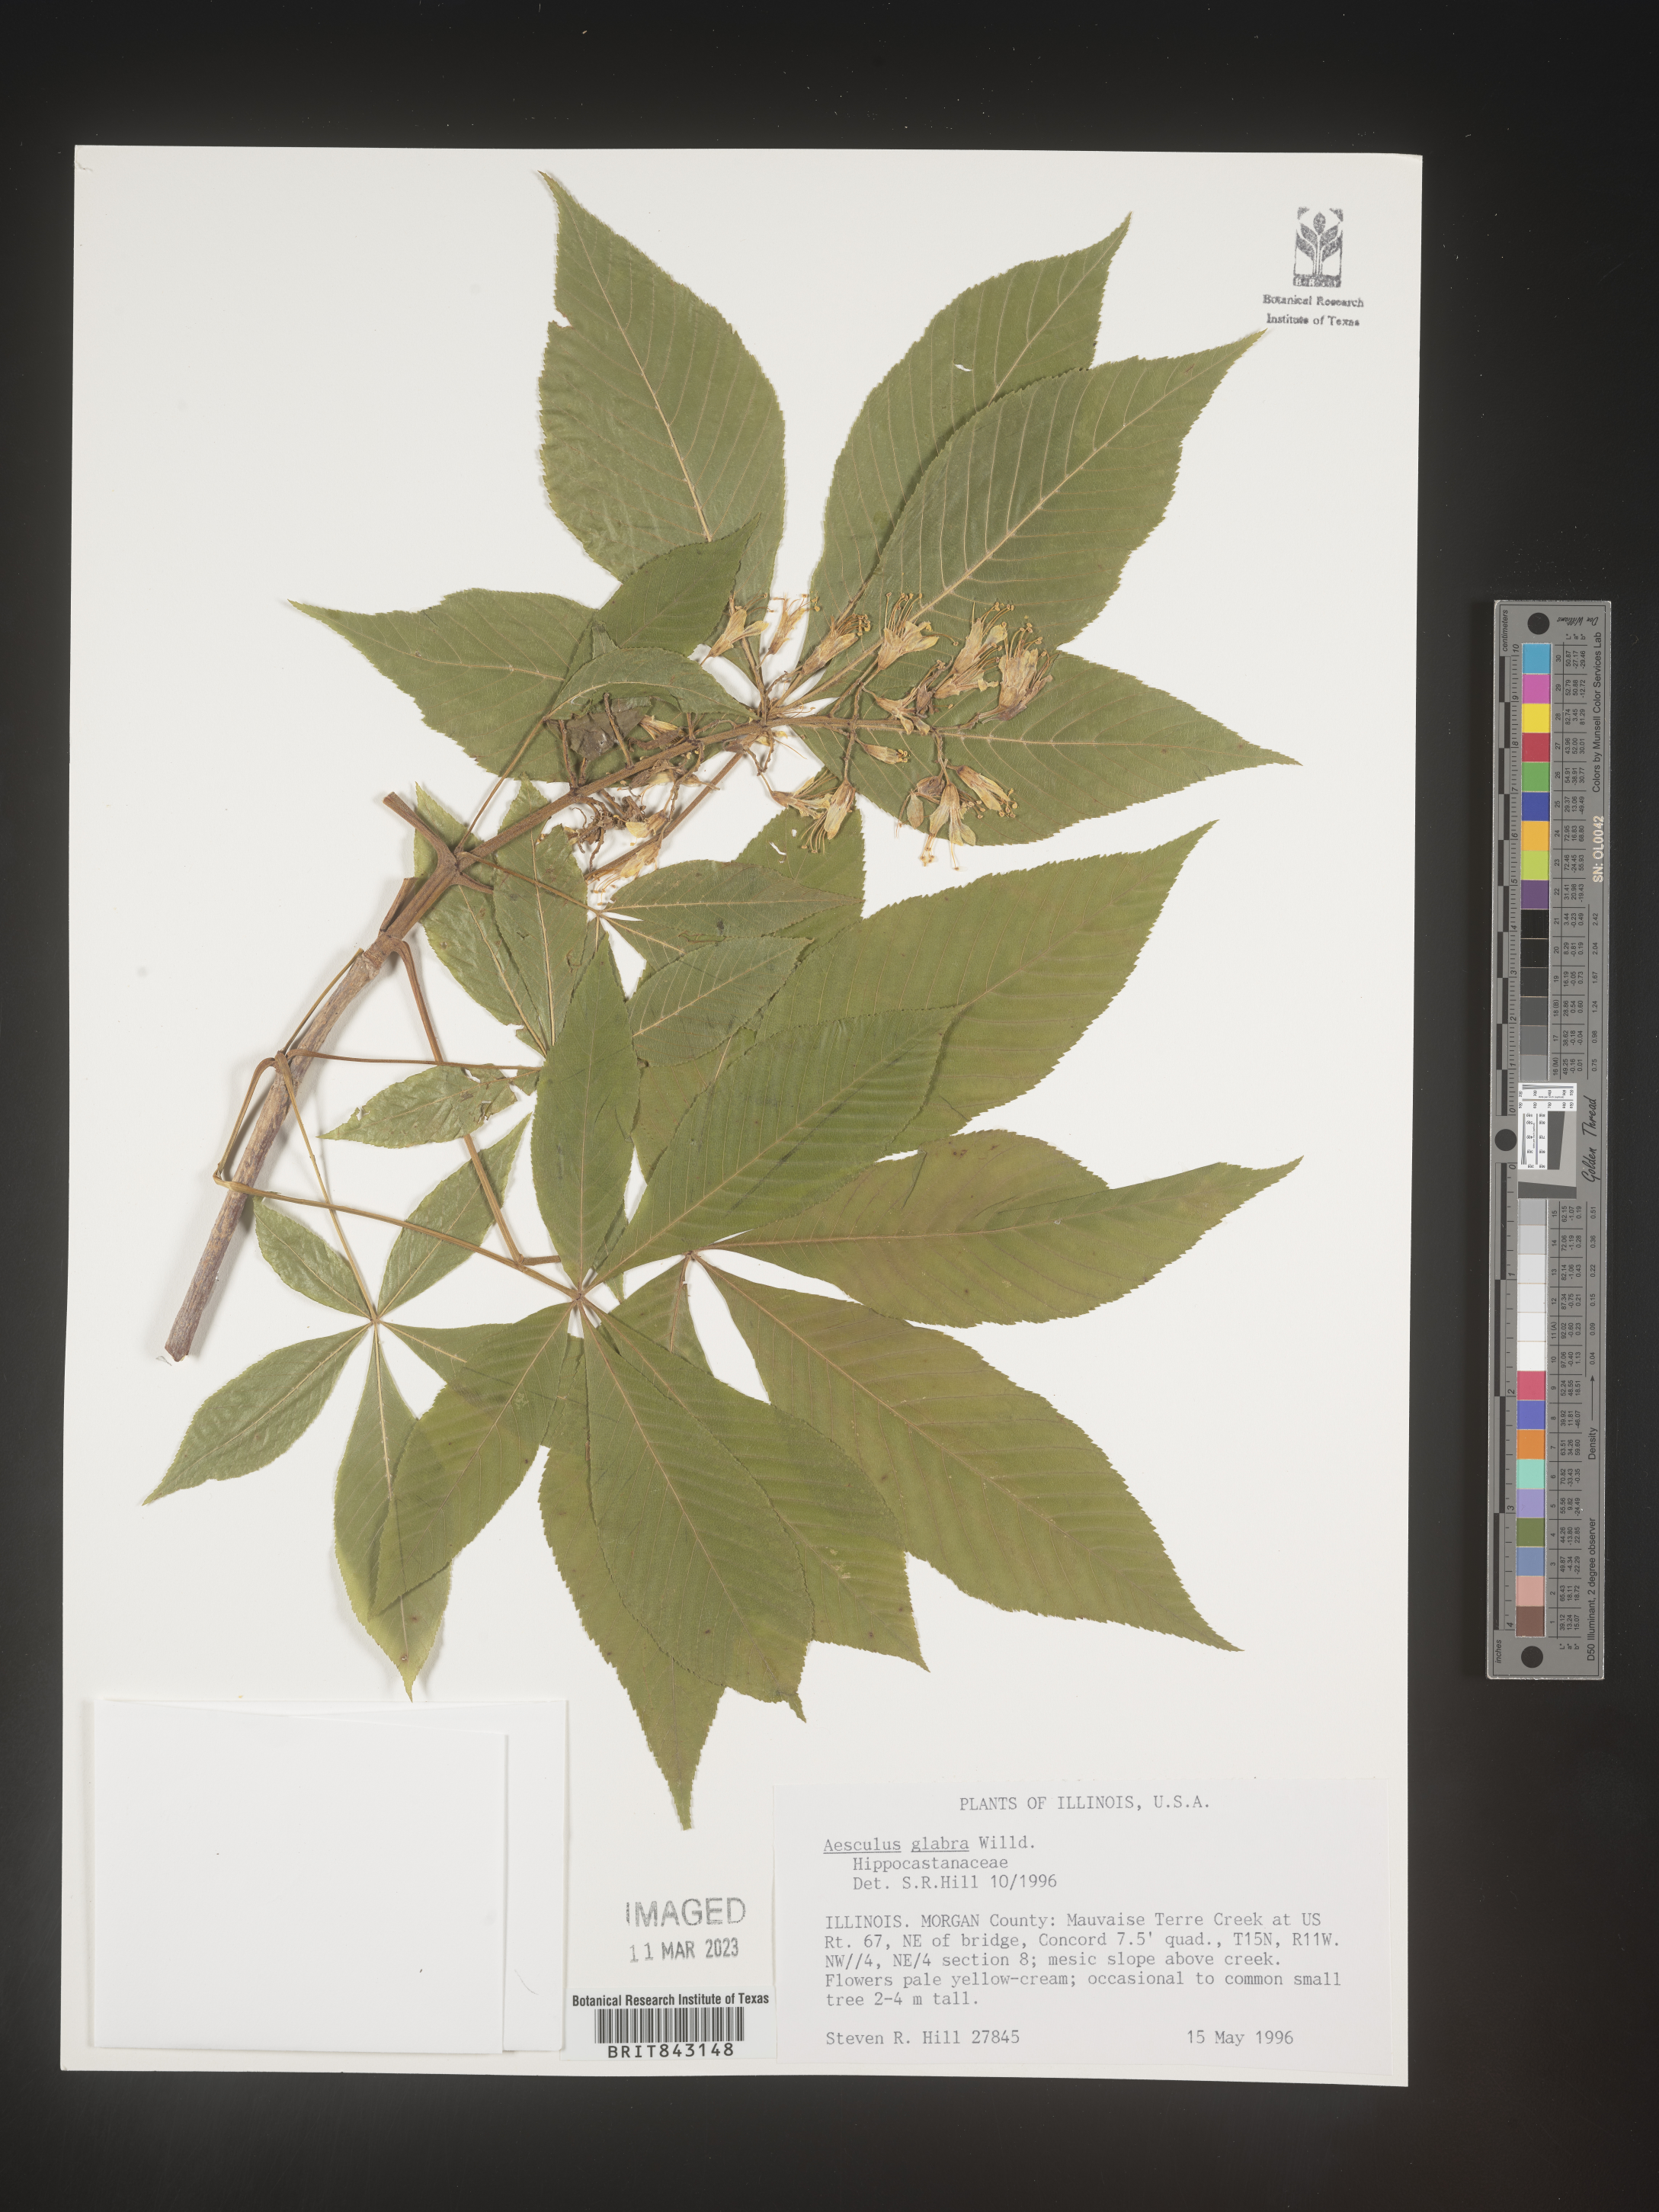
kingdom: Plantae
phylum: Tracheophyta
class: Magnoliopsida
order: Sapindales
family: Sapindaceae
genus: Aesculus
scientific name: Aesculus glabra
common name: Ohio buckeye
